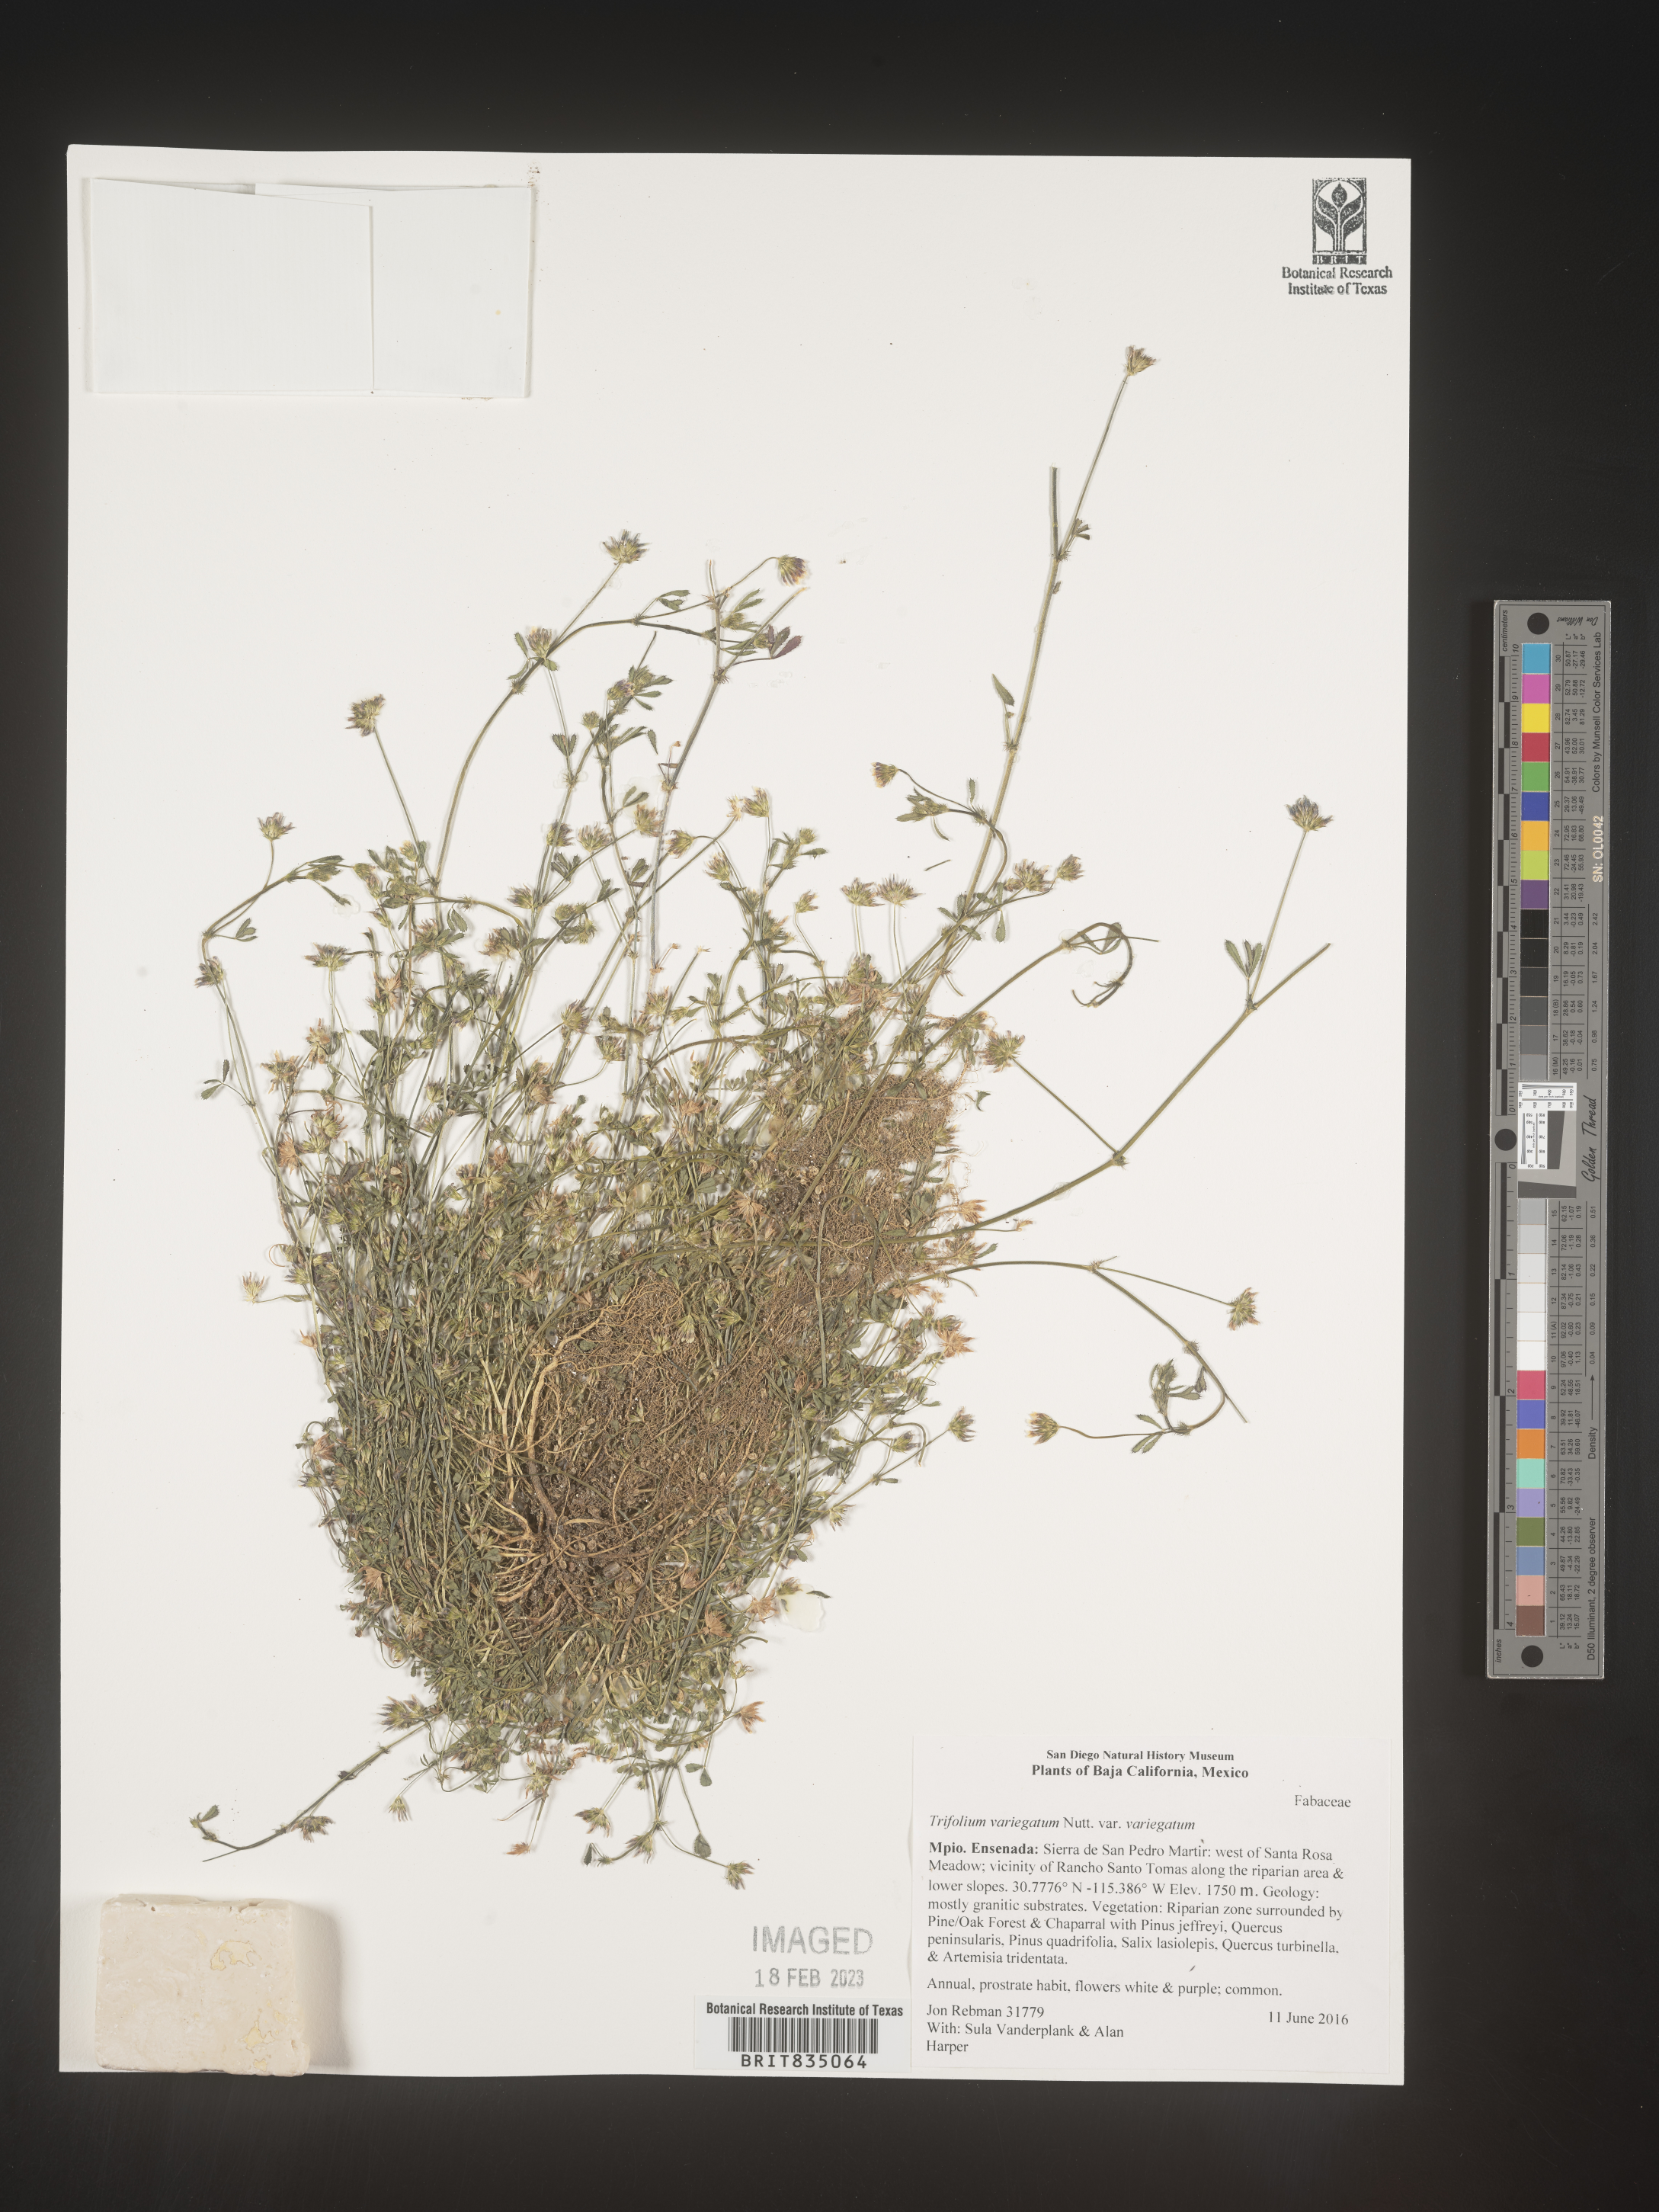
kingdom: Plantae
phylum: Tracheophyta
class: Magnoliopsida
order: Fabales
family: Fabaceae
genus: Trifolium
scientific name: Trifolium
